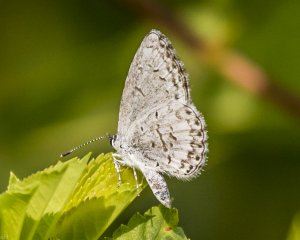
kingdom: Animalia
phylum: Arthropoda
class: Insecta
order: Lepidoptera
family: Lycaenidae
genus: Cyaniris
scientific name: Cyaniris neglecta
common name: Summer Azure
